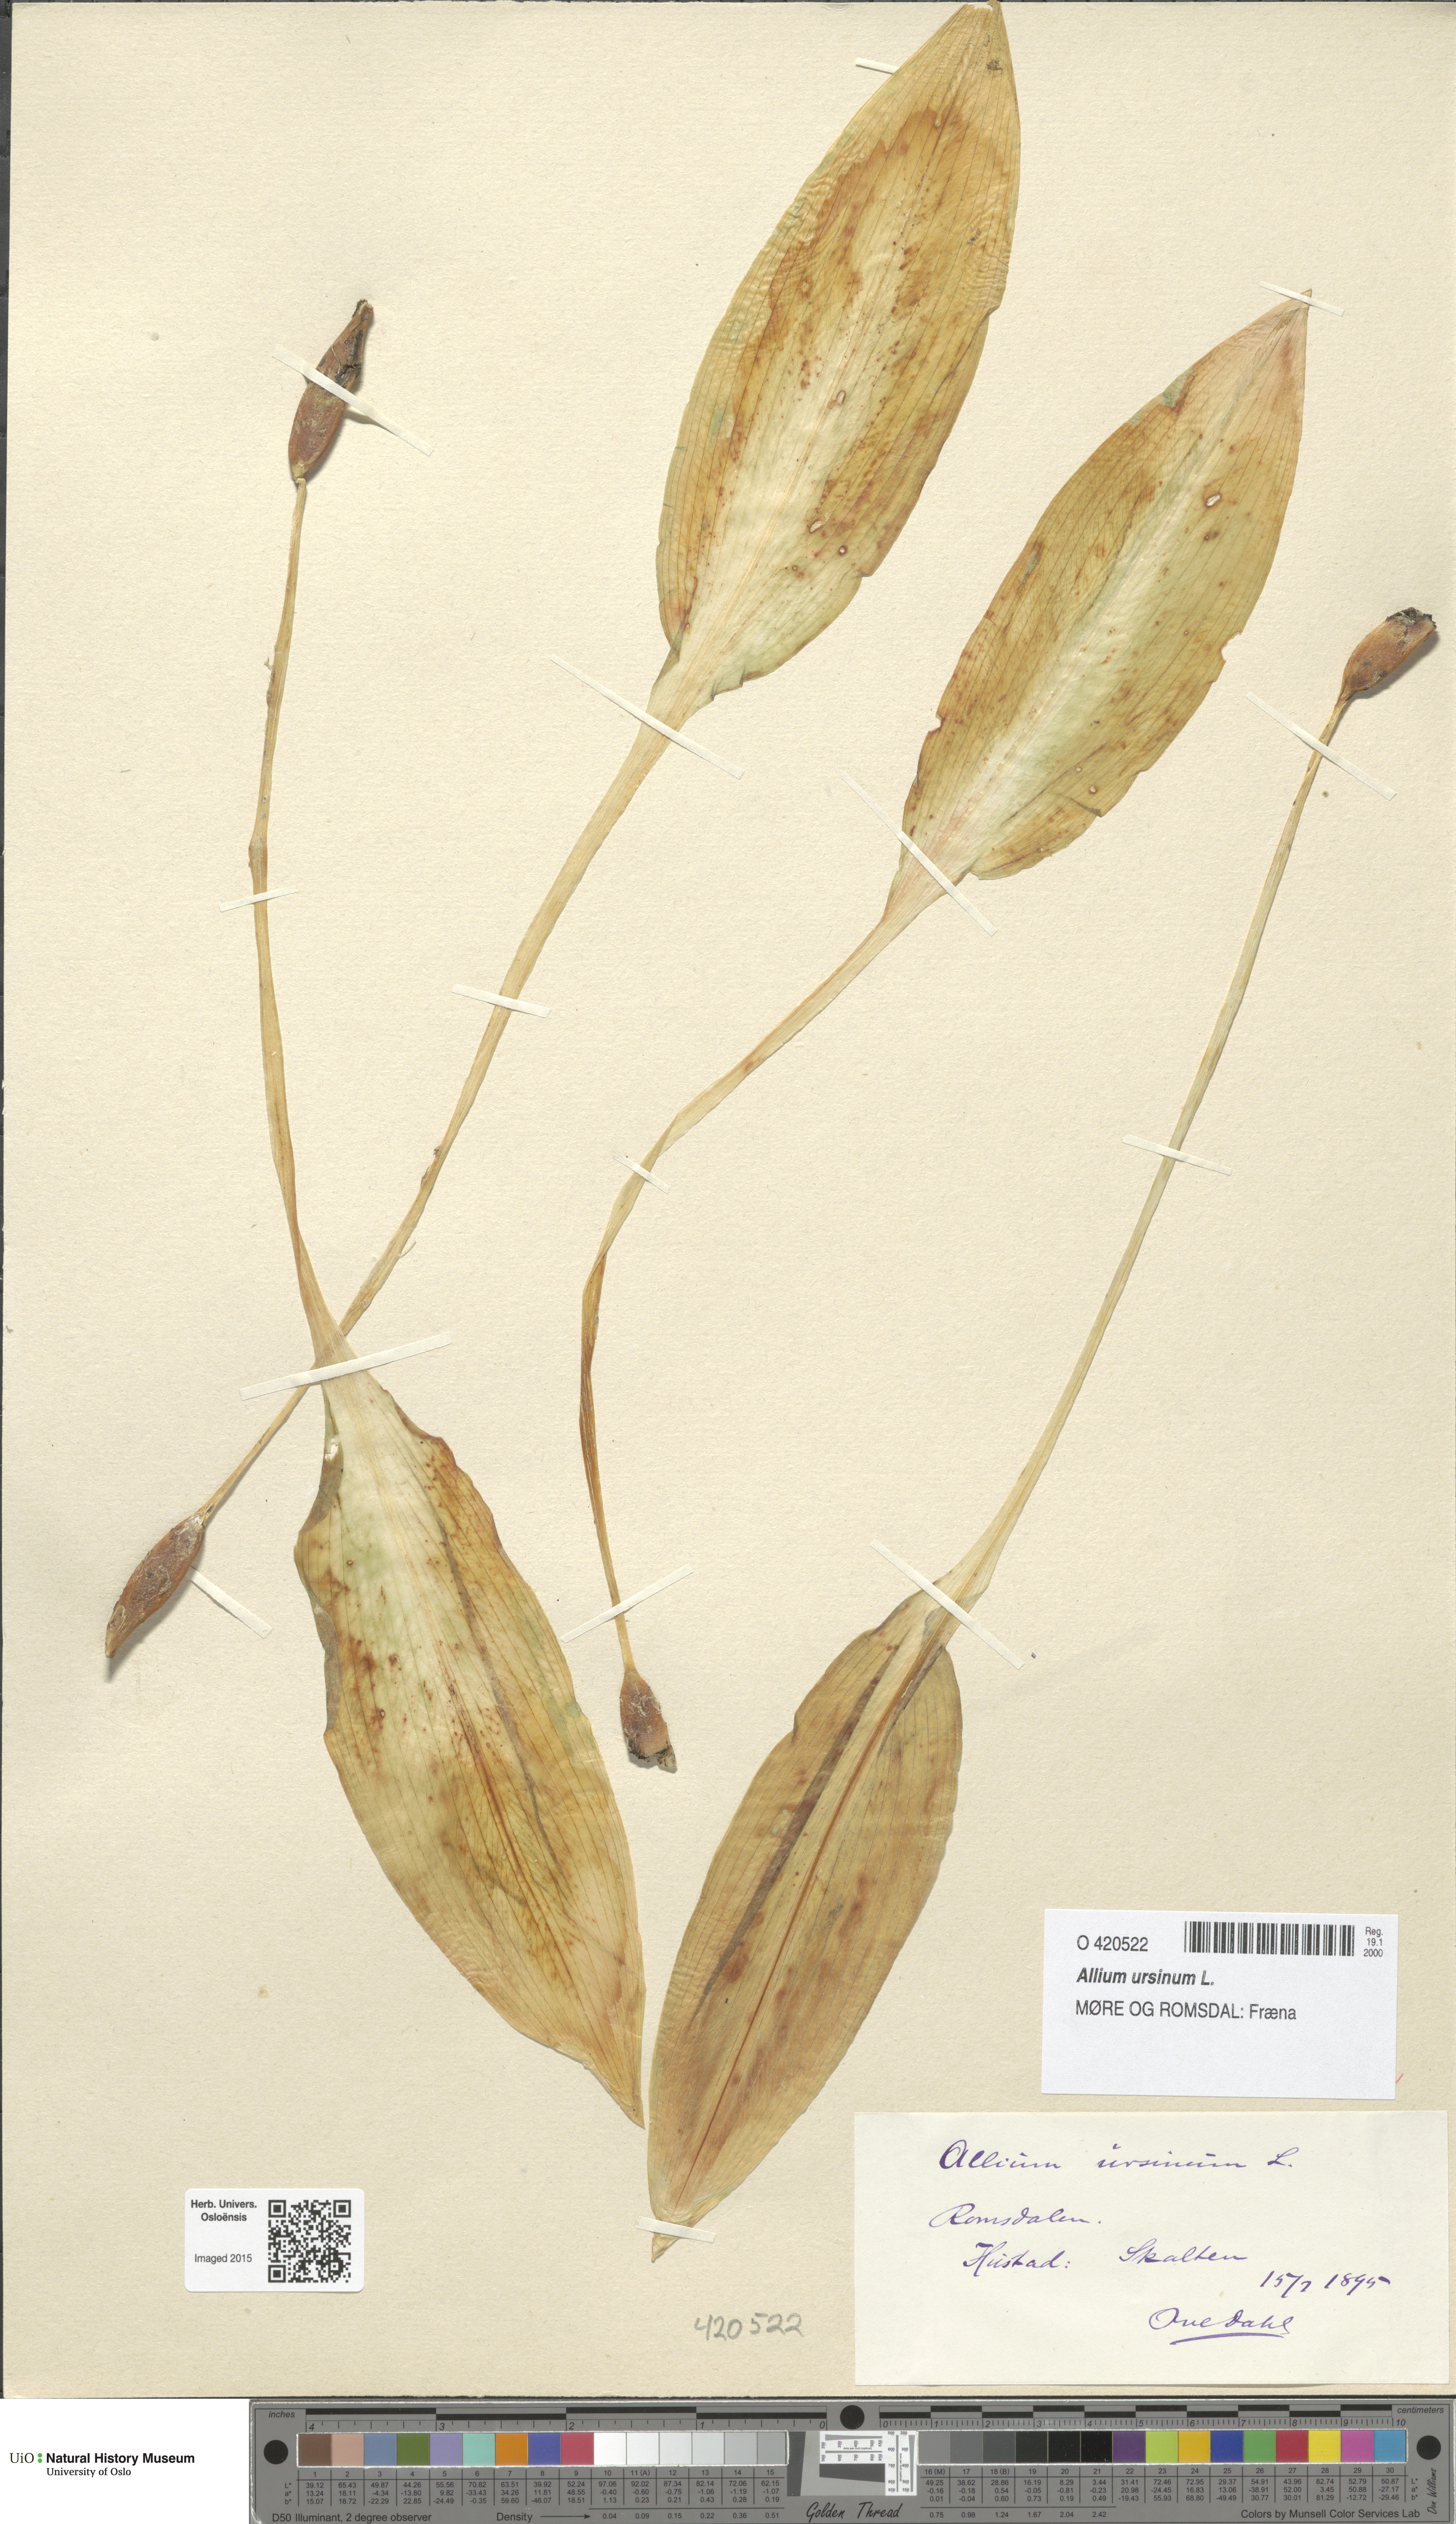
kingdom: Plantae
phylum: Tracheophyta
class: Liliopsida
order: Asparagales
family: Amaryllidaceae
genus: Allium
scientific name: Allium ursinum
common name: Ramsons
